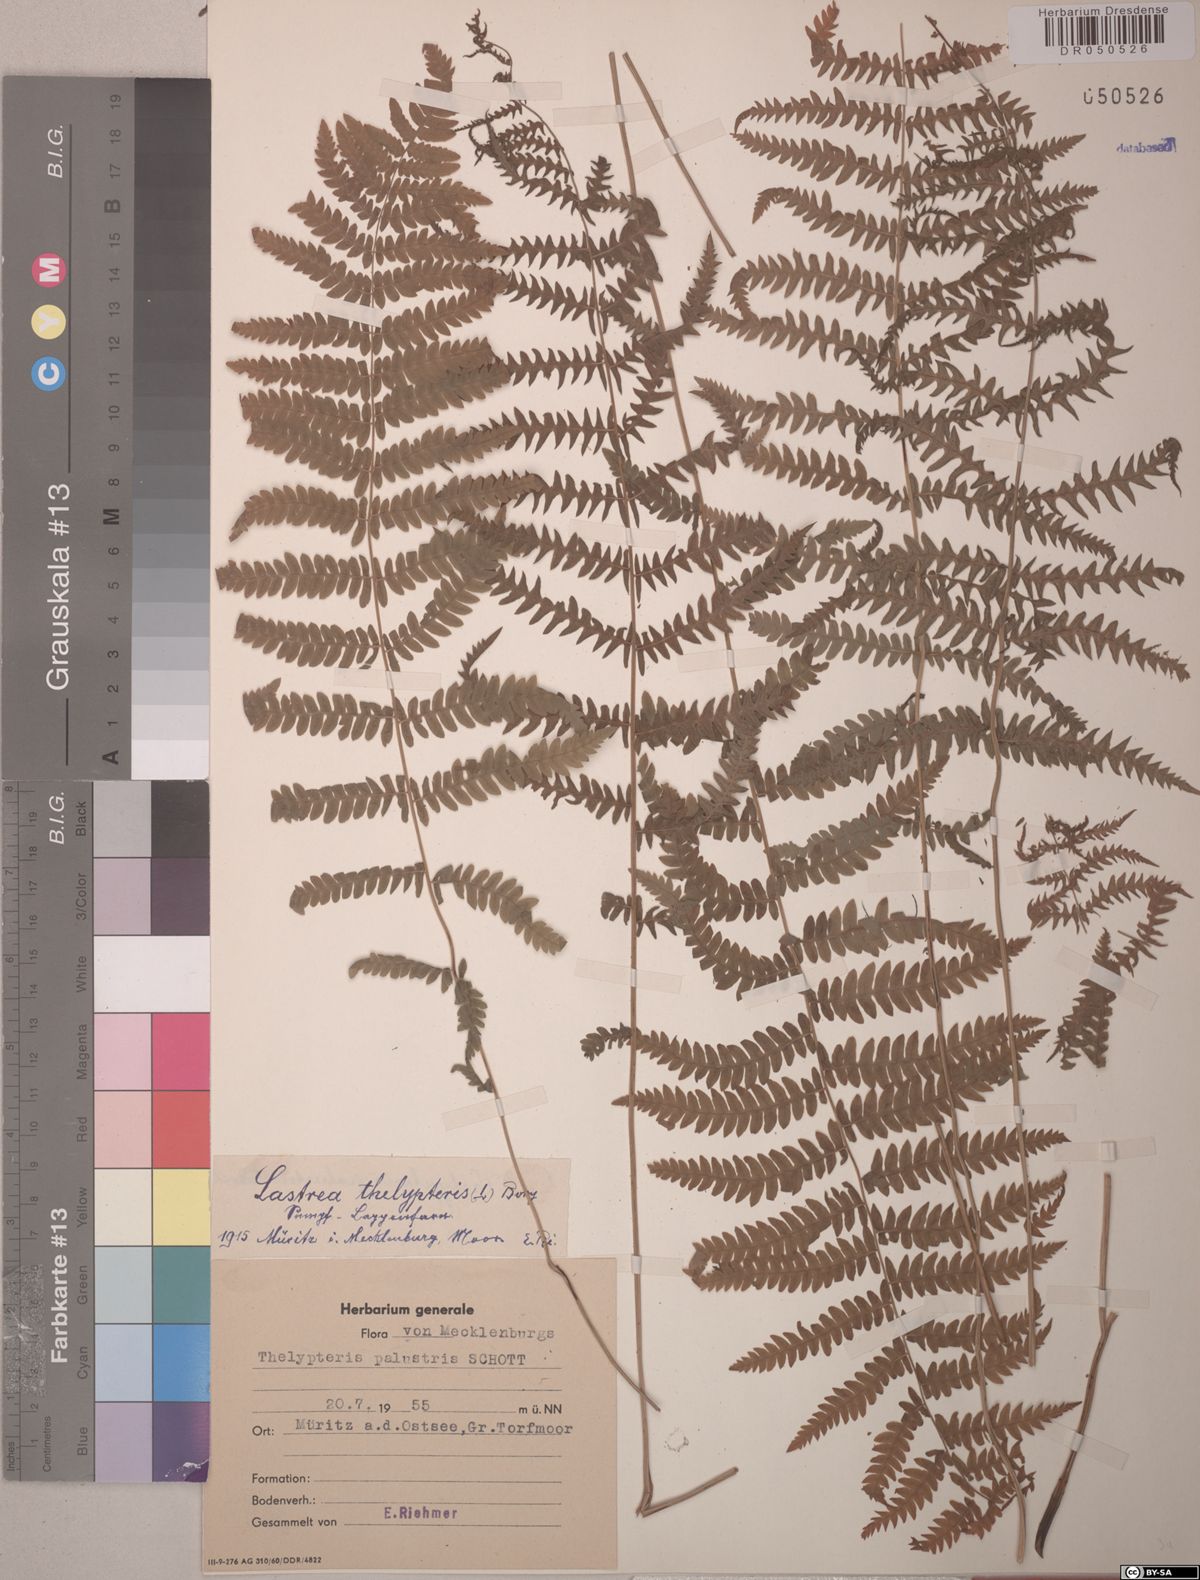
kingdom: Plantae
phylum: Tracheophyta
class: Polypodiopsida
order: Polypodiales
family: Thelypteridaceae
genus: Thelypteris
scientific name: Thelypteris palustris
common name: Marsh fern
